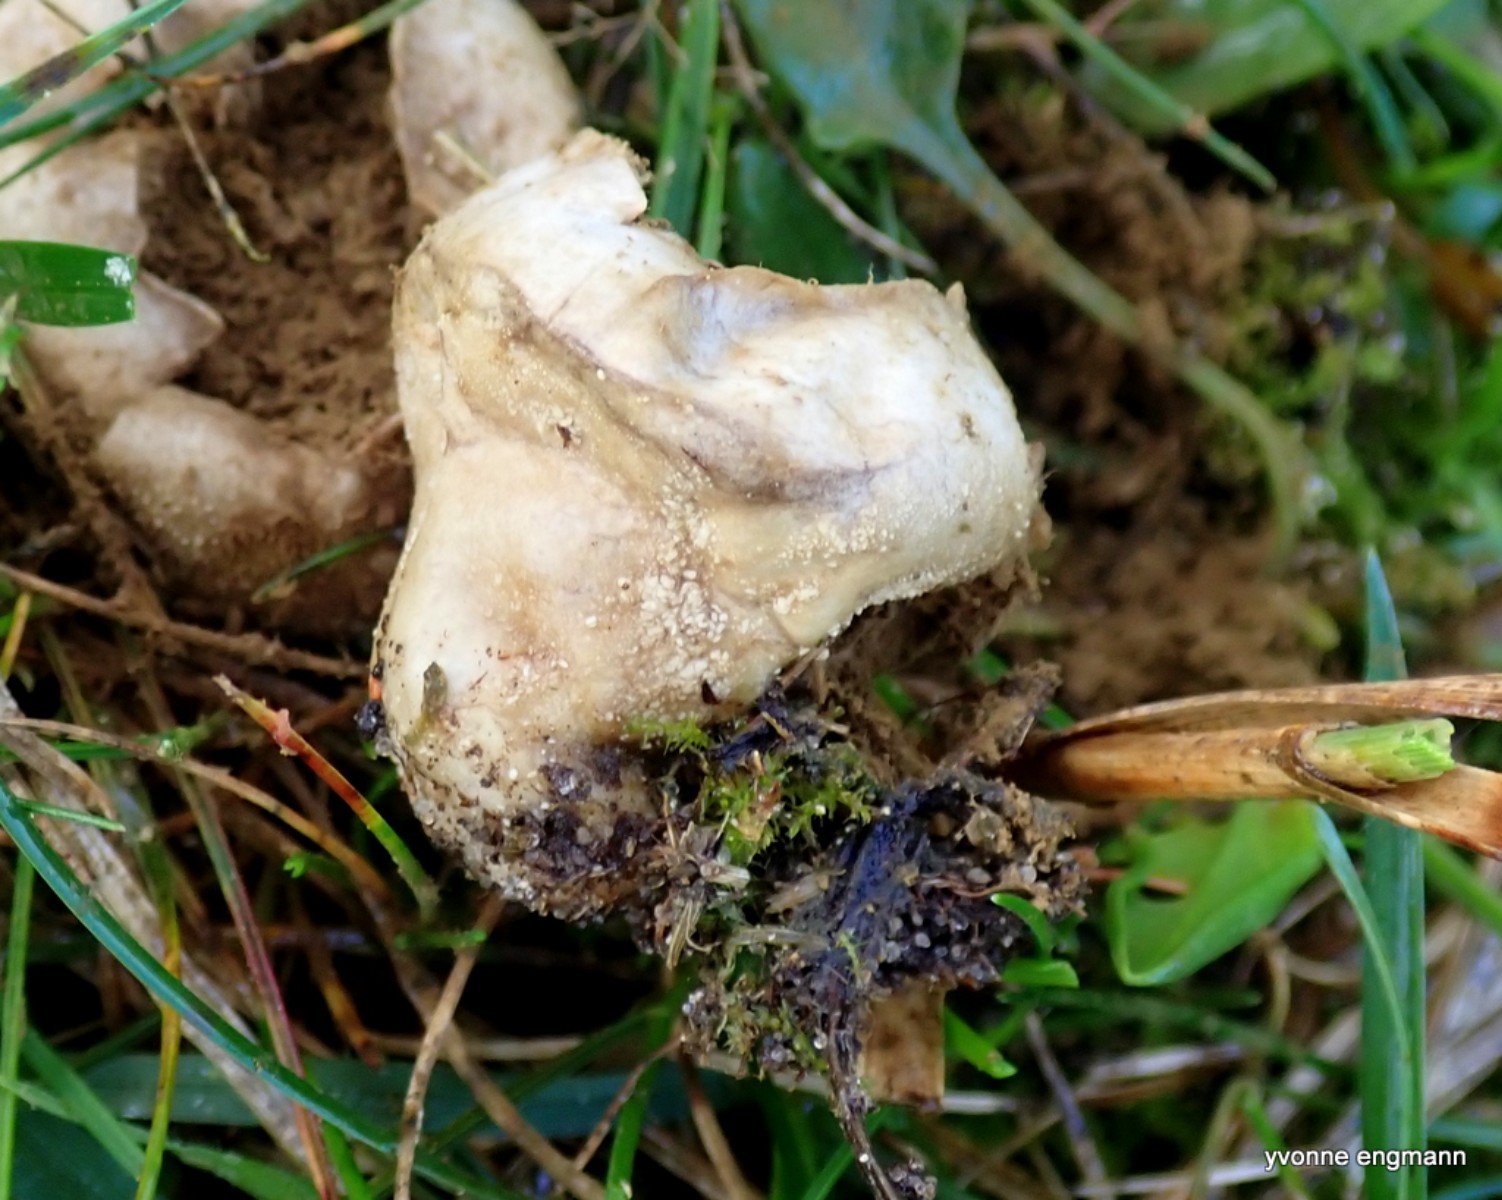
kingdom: Fungi
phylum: Basidiomycota
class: Agaricomycetes
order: Agaricales
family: Lycoperdaceae
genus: Lycoperdon
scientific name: Lycoperdon pratense
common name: flad støvbold
